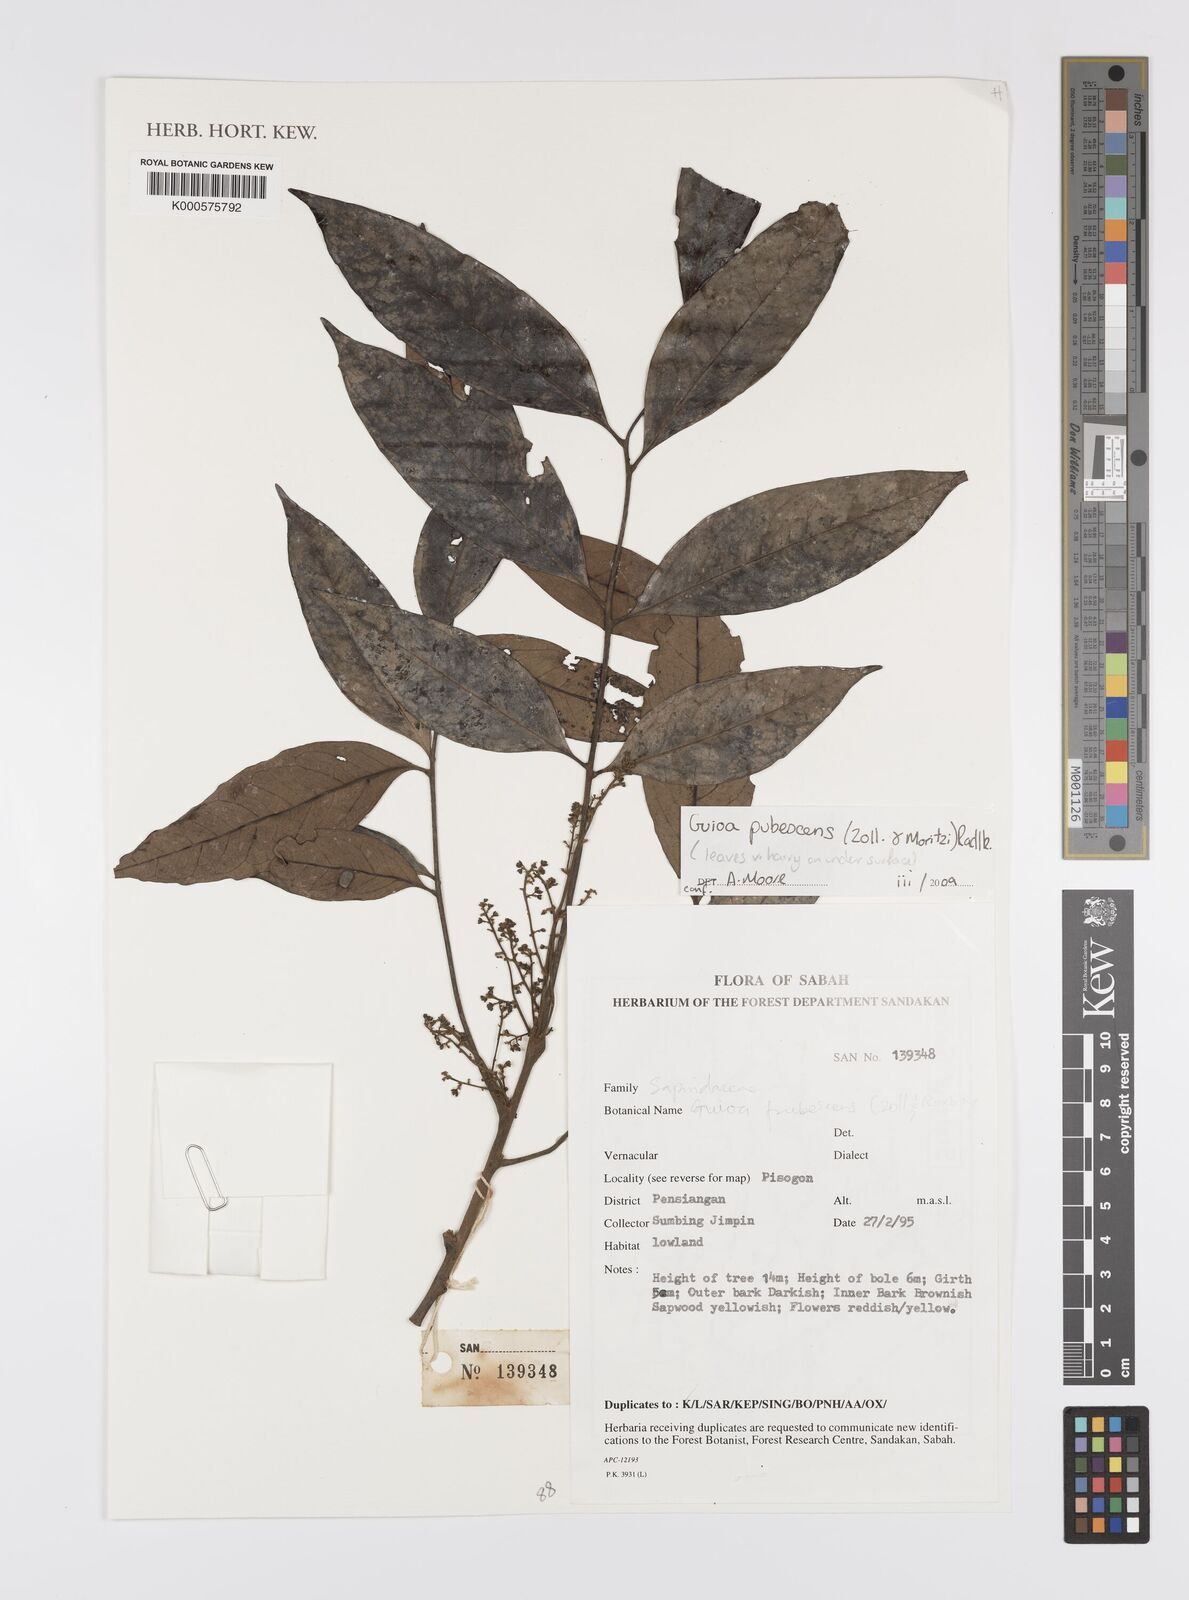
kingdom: Plantae
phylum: Tracheophyta
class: Magnoliopsida
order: Sapindales
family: Sapindaceae
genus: Guioa
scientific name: Guioa pubescens
